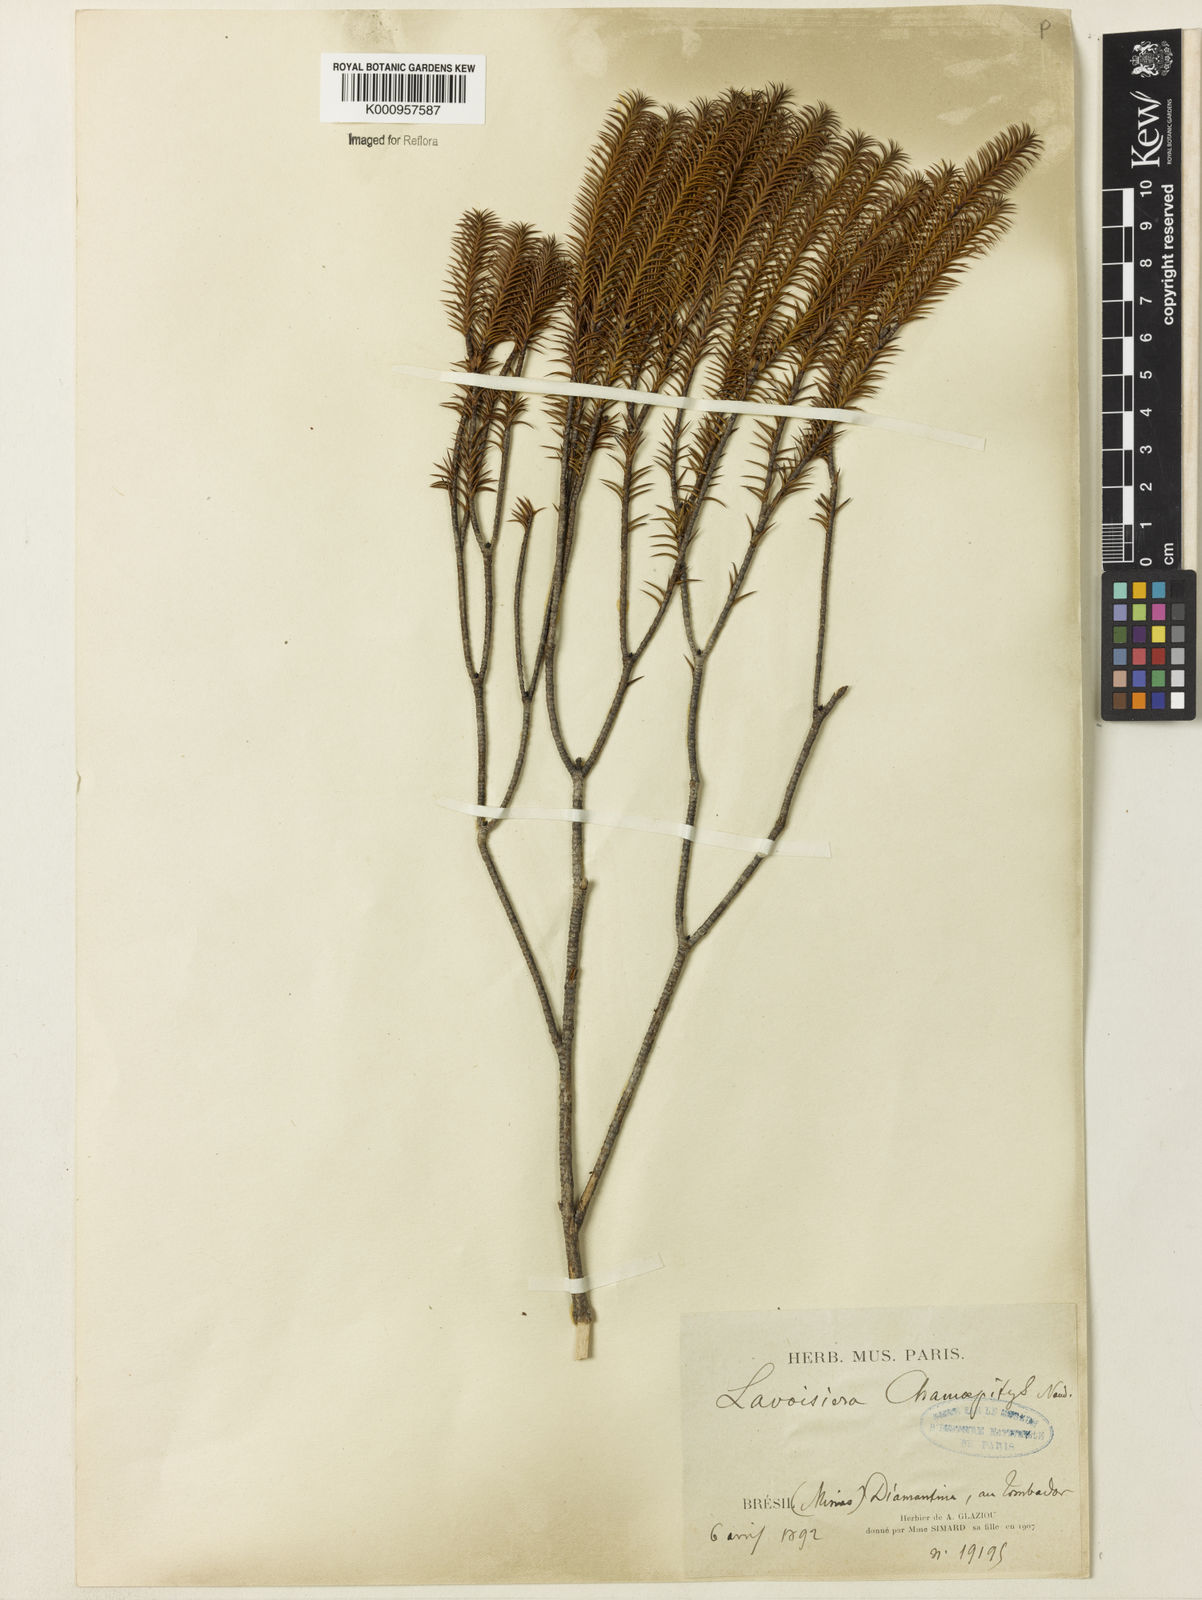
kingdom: Plantae
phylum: Tracheophyta
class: Magnoliopsida
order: Myrtales
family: Melastomataceae
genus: Microlicia
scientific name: Microlicia hilairei
